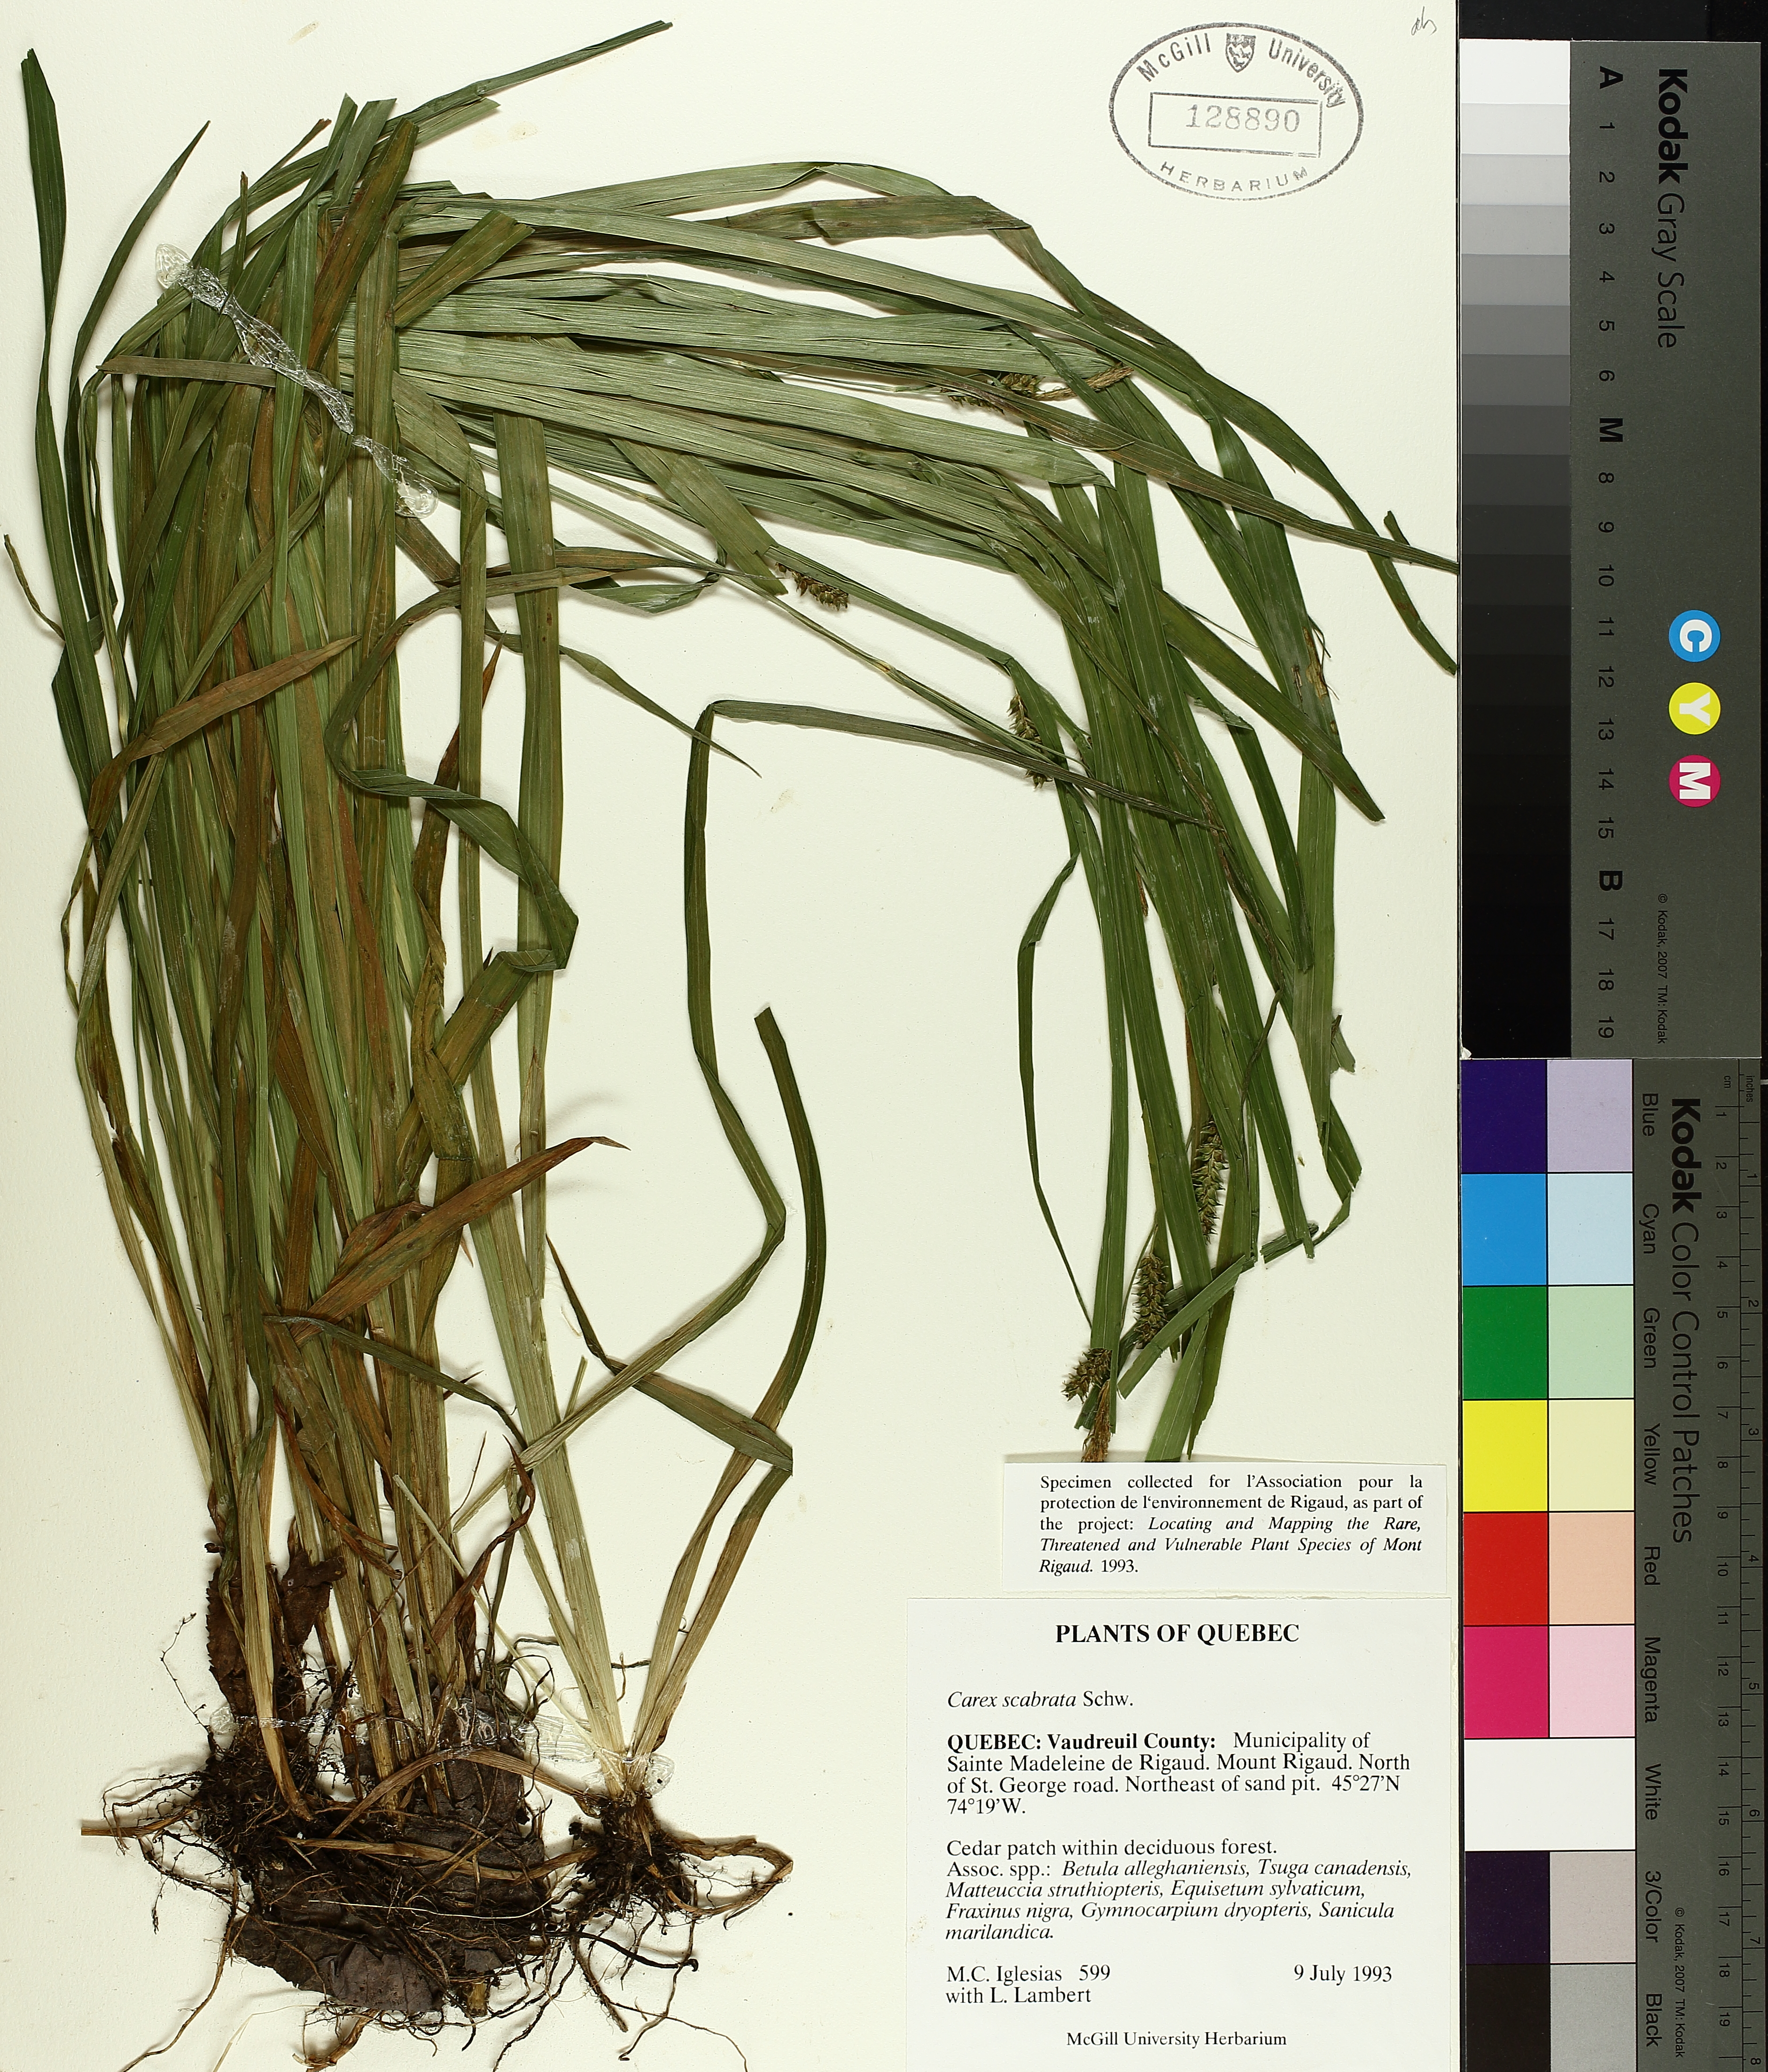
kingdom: Plantae
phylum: Tracheophyta
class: Liliopsida
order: Poales
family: Cyperaceae
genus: Carex
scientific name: Carex saxatilis
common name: Russet sedge
